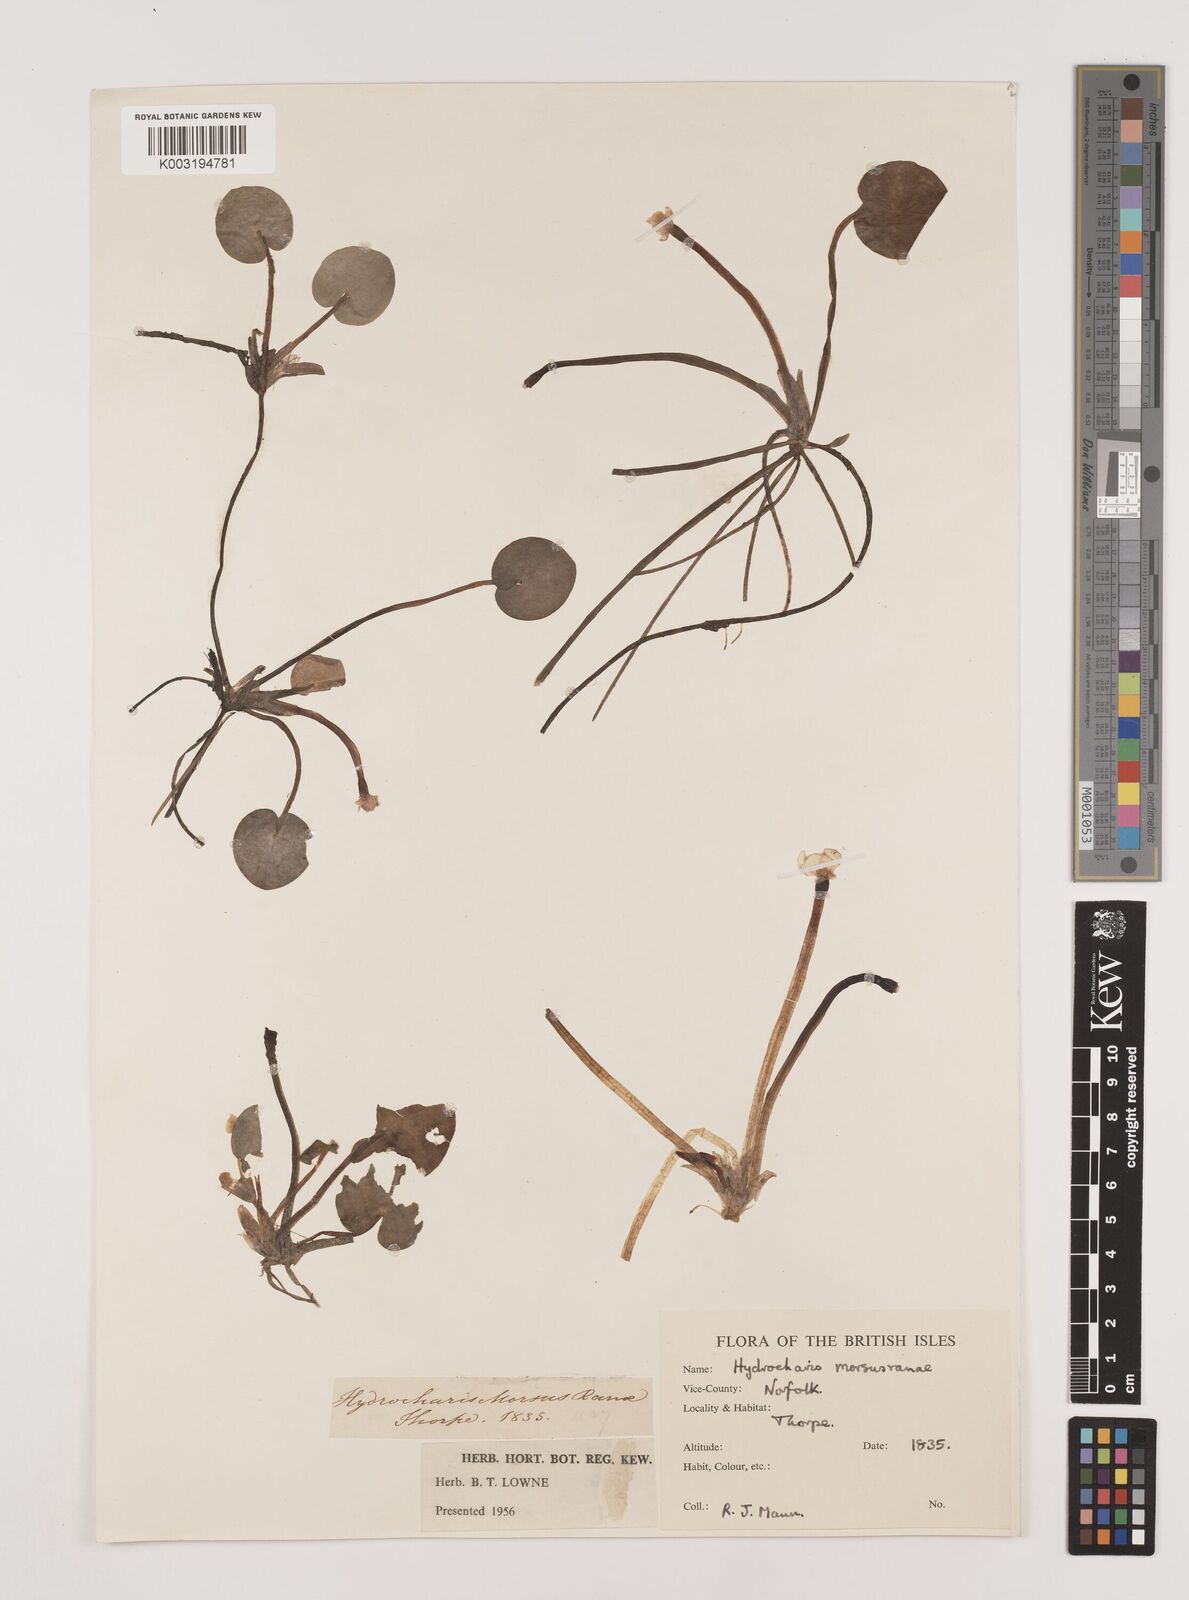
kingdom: Plantae
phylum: Tracheophyta
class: Liliopsida
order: Alismatales
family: Hydrocharitaceae
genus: Hydrocharis
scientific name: Hydrocharis morsus-ranae
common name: Frogbit
